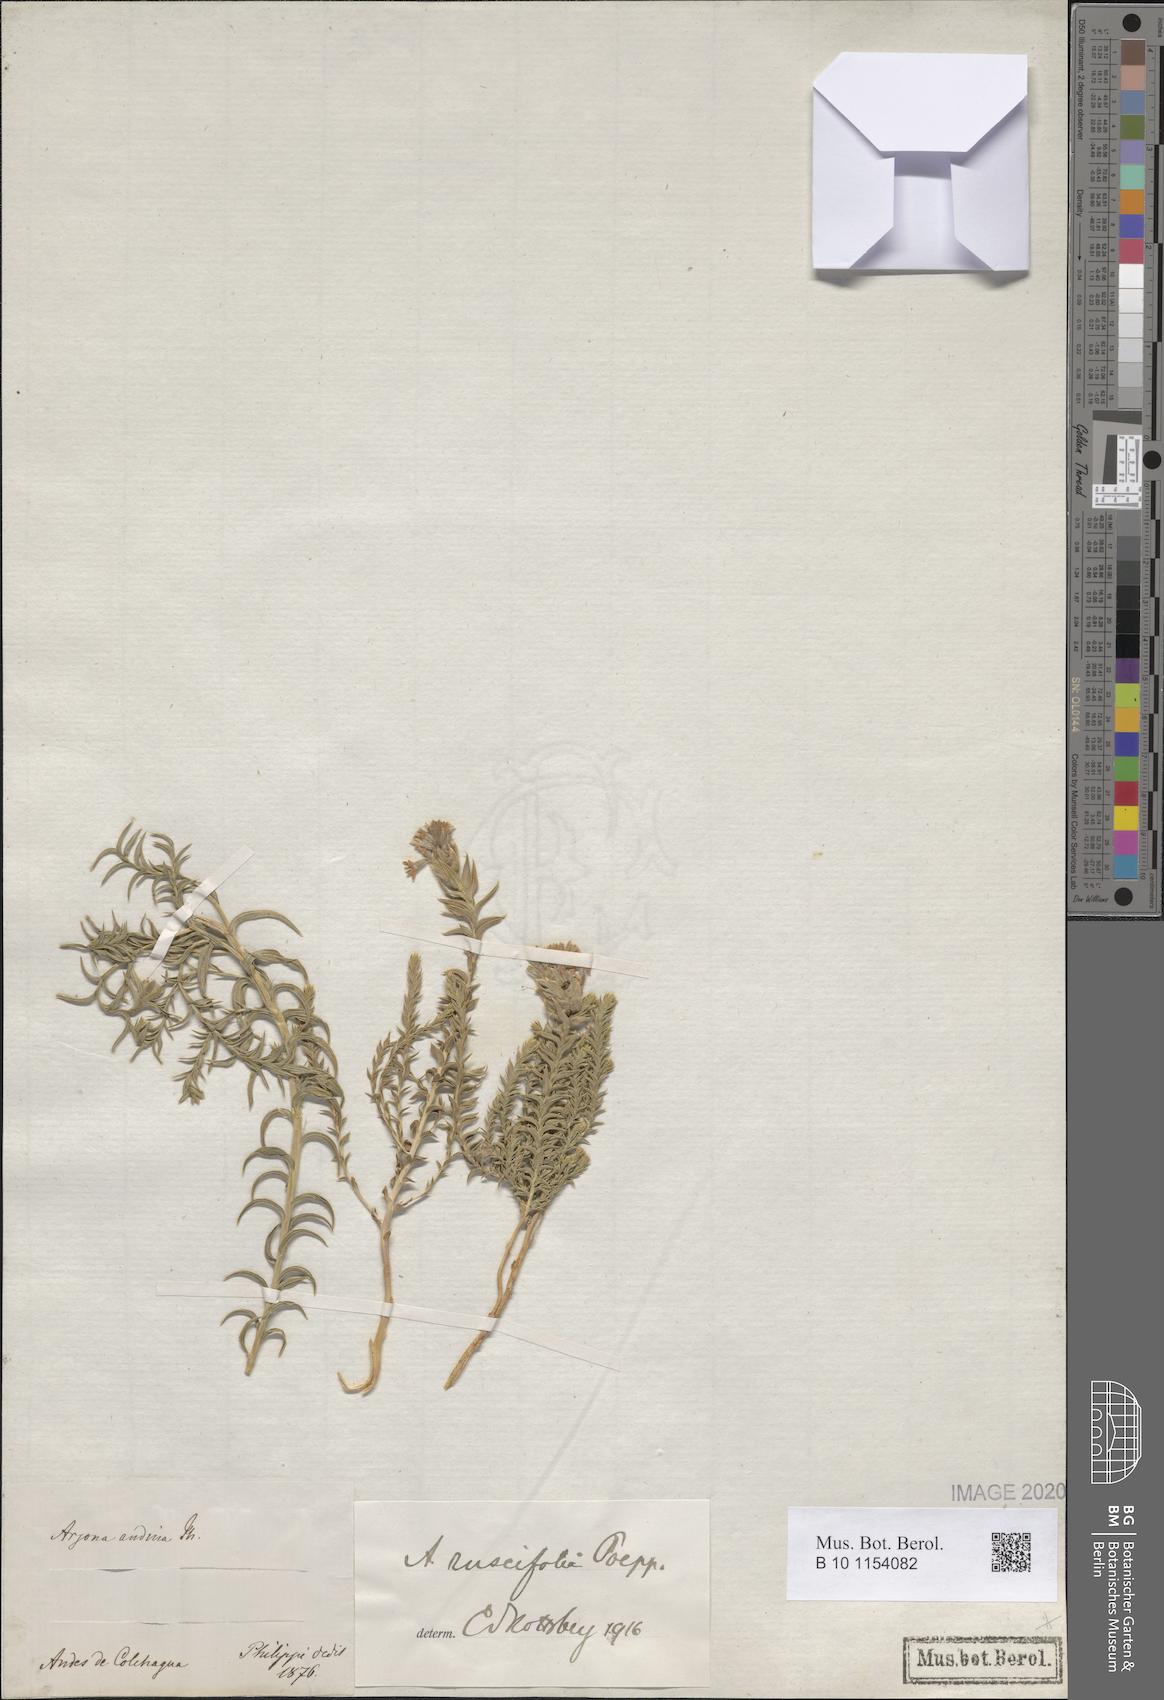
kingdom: Plantae
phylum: Tracheophyta
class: Magnoliopsida
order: Santalales
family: Schoepfiaceae
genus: Arjona
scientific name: Arjona patagonica
